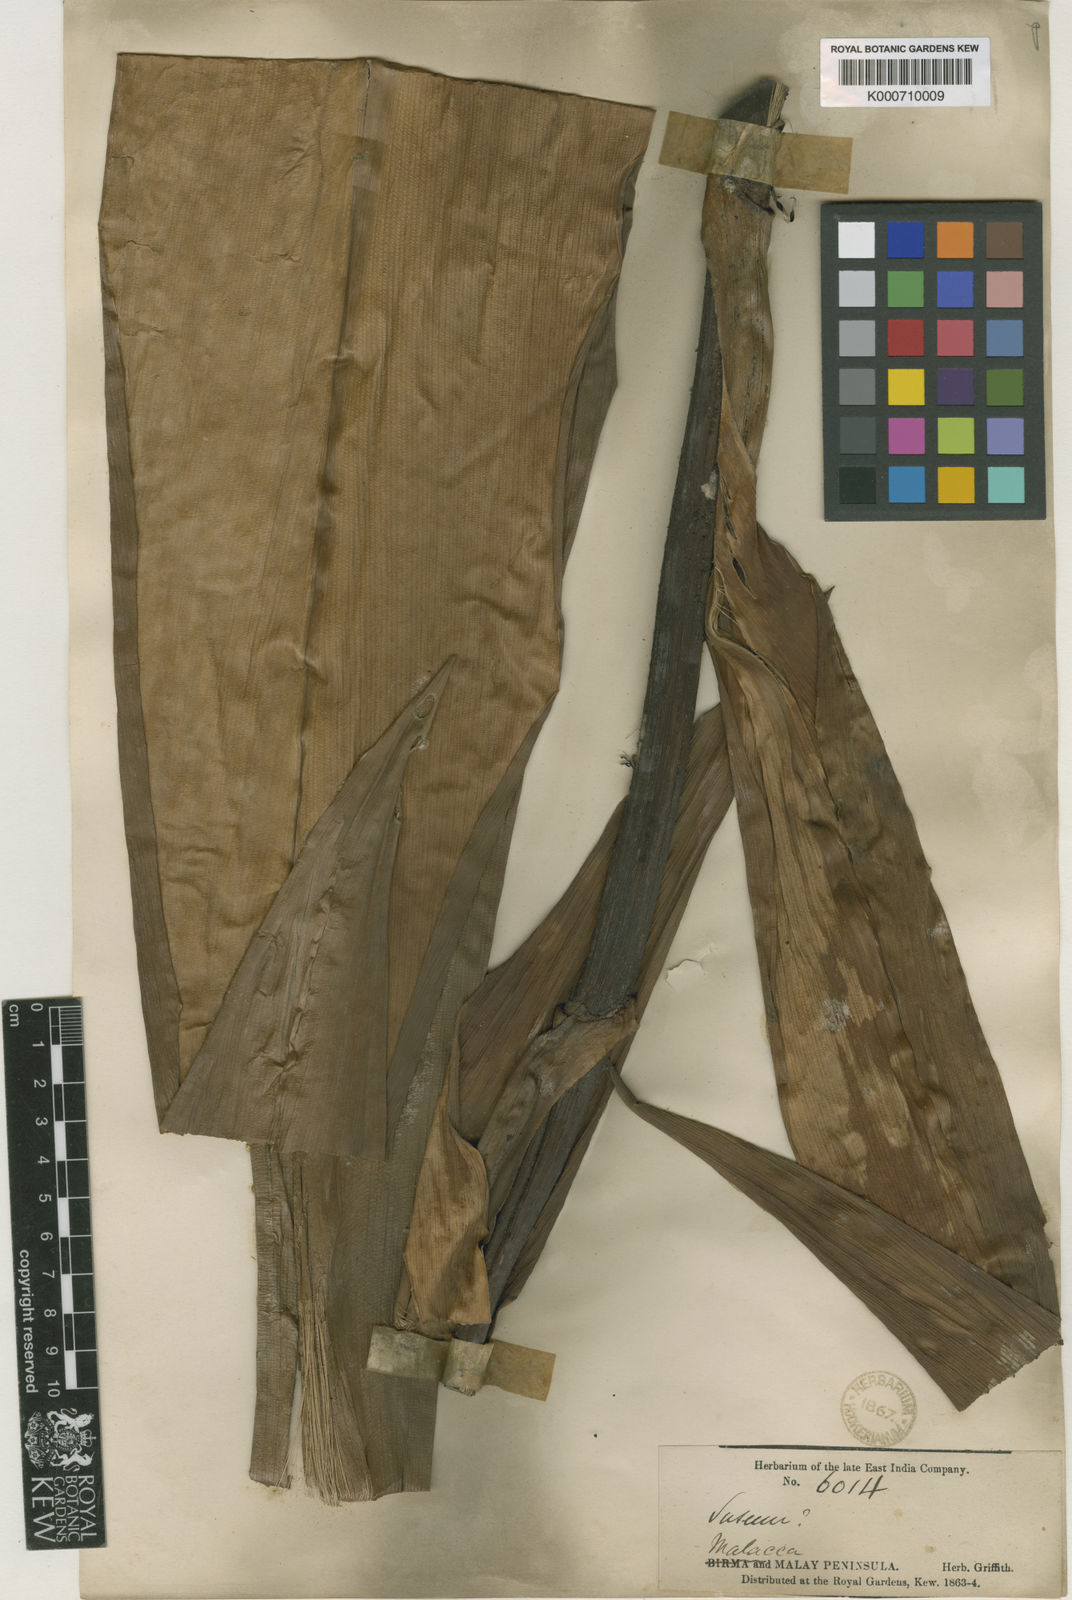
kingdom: Plantae
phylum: Tracheophyta
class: Liliopsida
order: Commelinales
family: Hanguanaceae
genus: Hanguana
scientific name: Hanguana malayana
